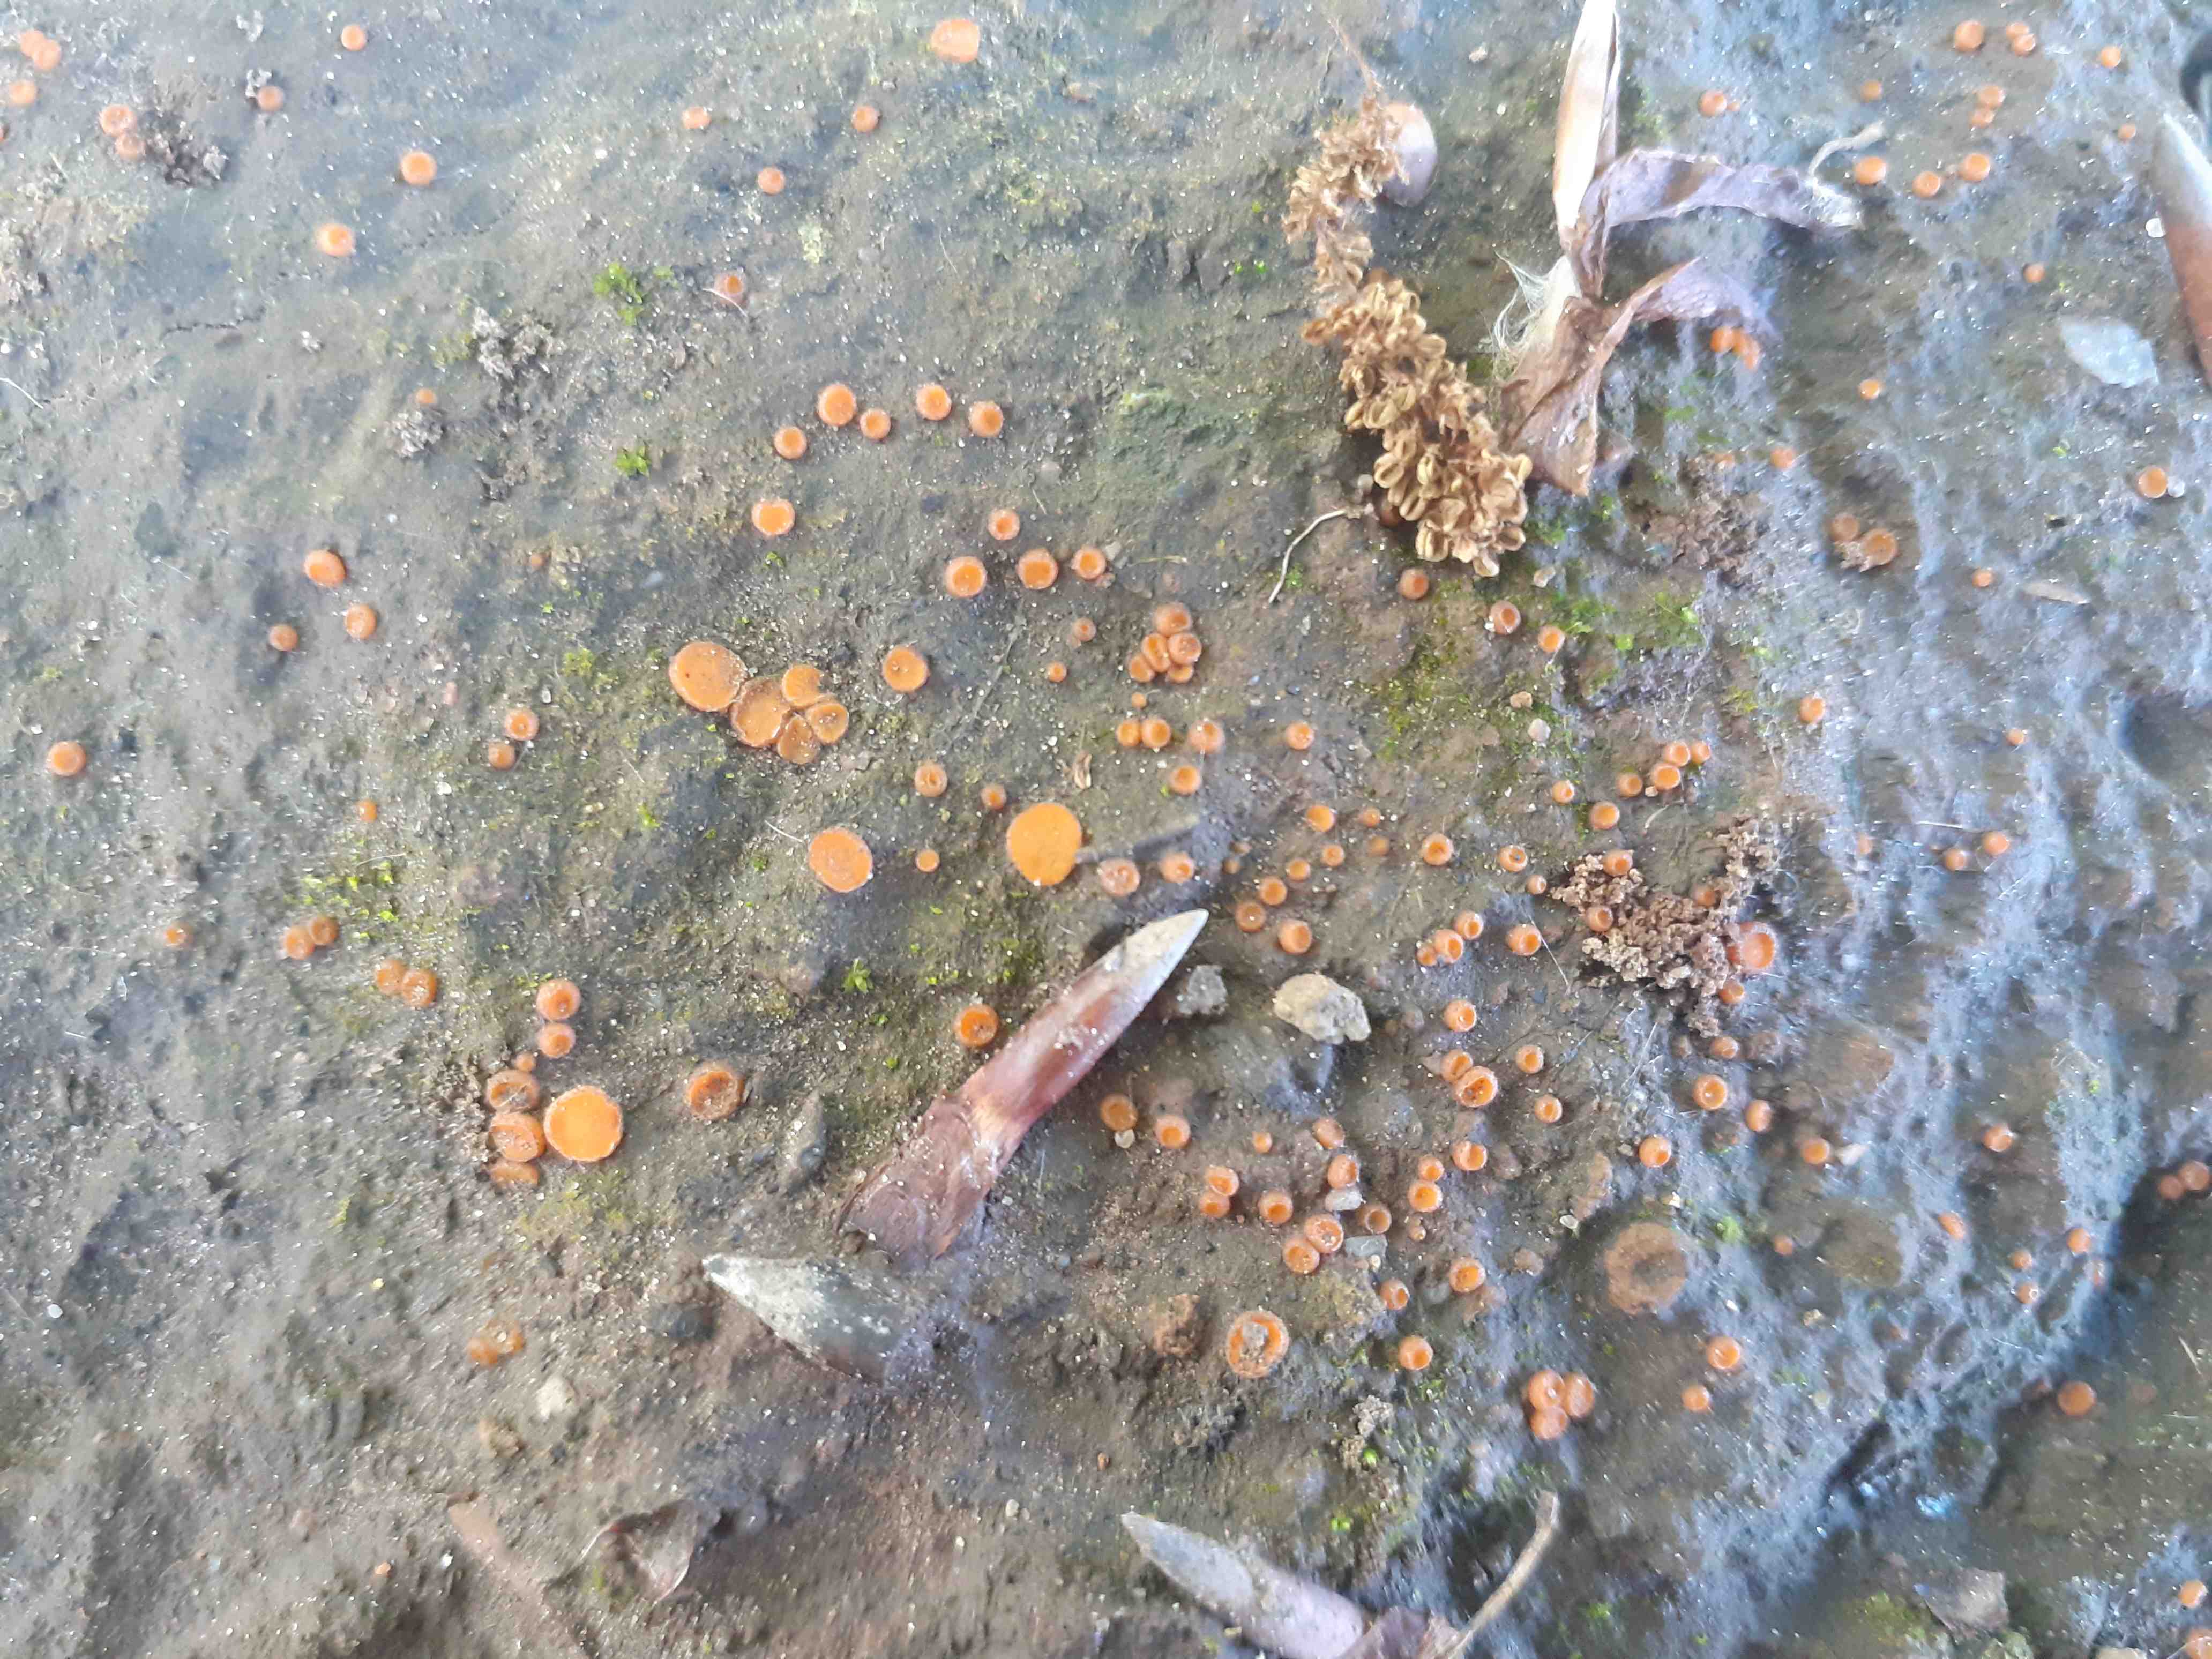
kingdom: Fungi
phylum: Ascomycota
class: Pezizomycetes
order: Pezizales
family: Pyronemataceae
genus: Anthracobia
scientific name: Anthracobia melaloma
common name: flamme-ildbæger
